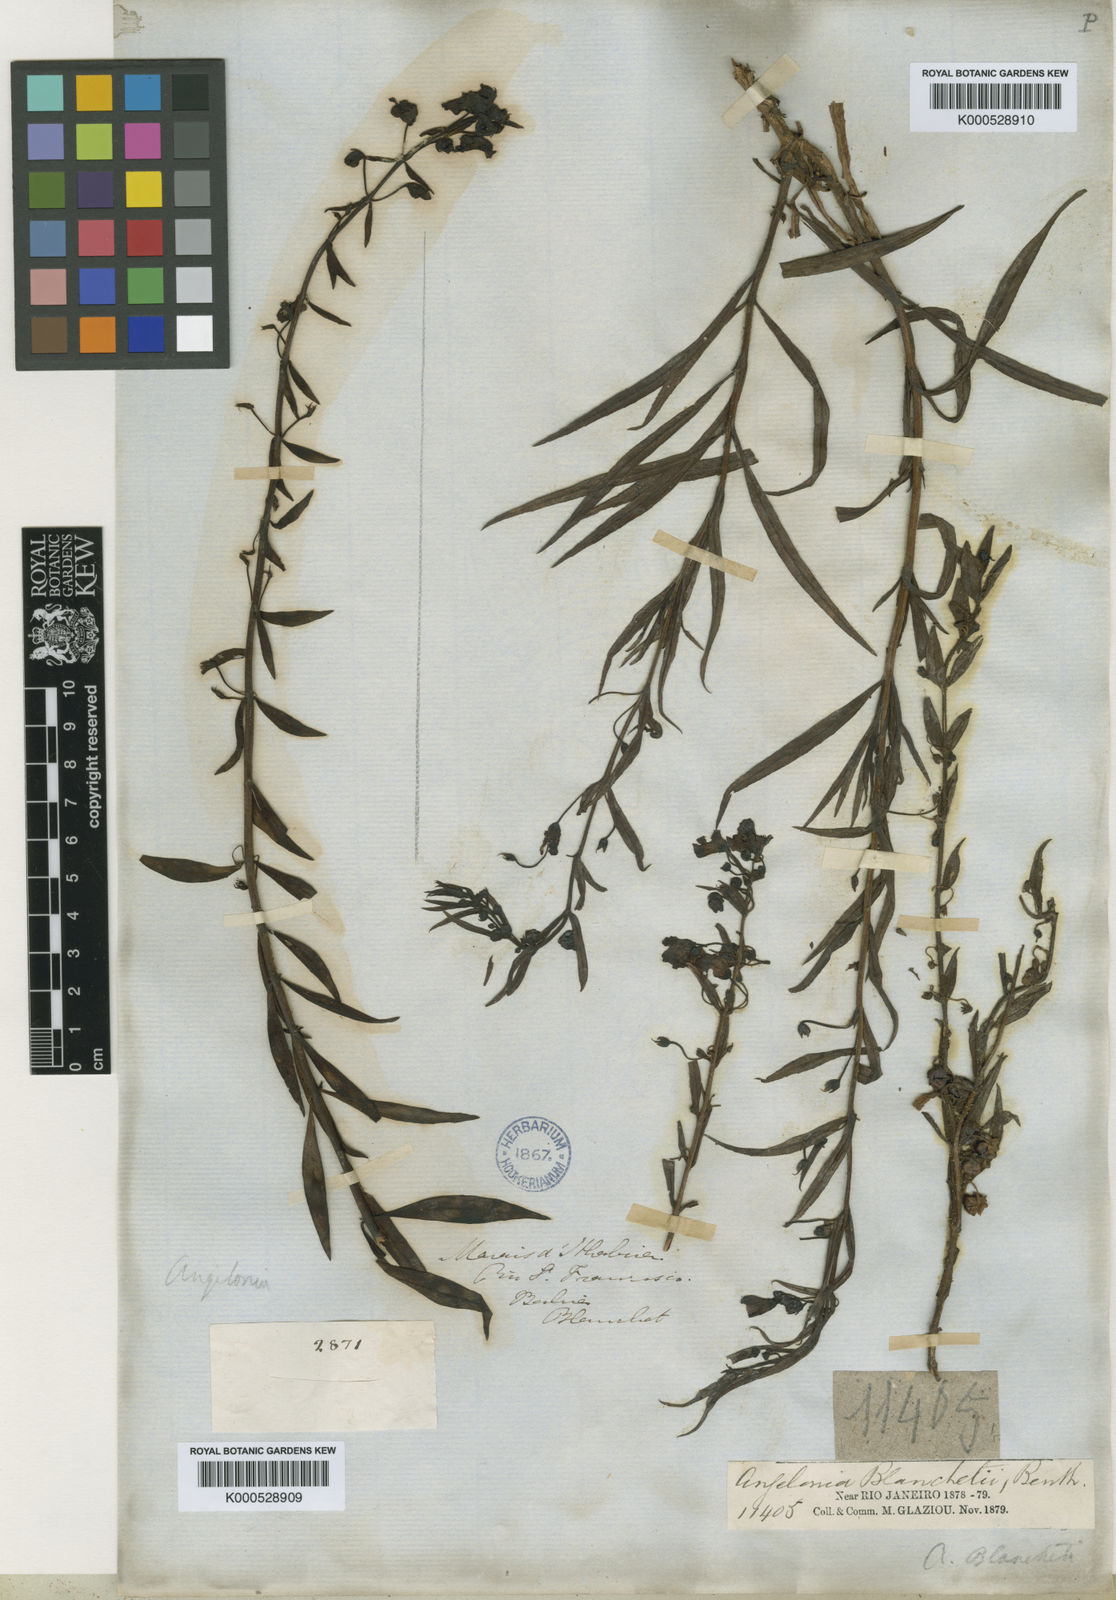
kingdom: Plantae
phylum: Tracheophyta
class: Magnoliopsida
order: Lamiales
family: Plantaginaceae
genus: Angelonia
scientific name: Angelonia blanchetii
